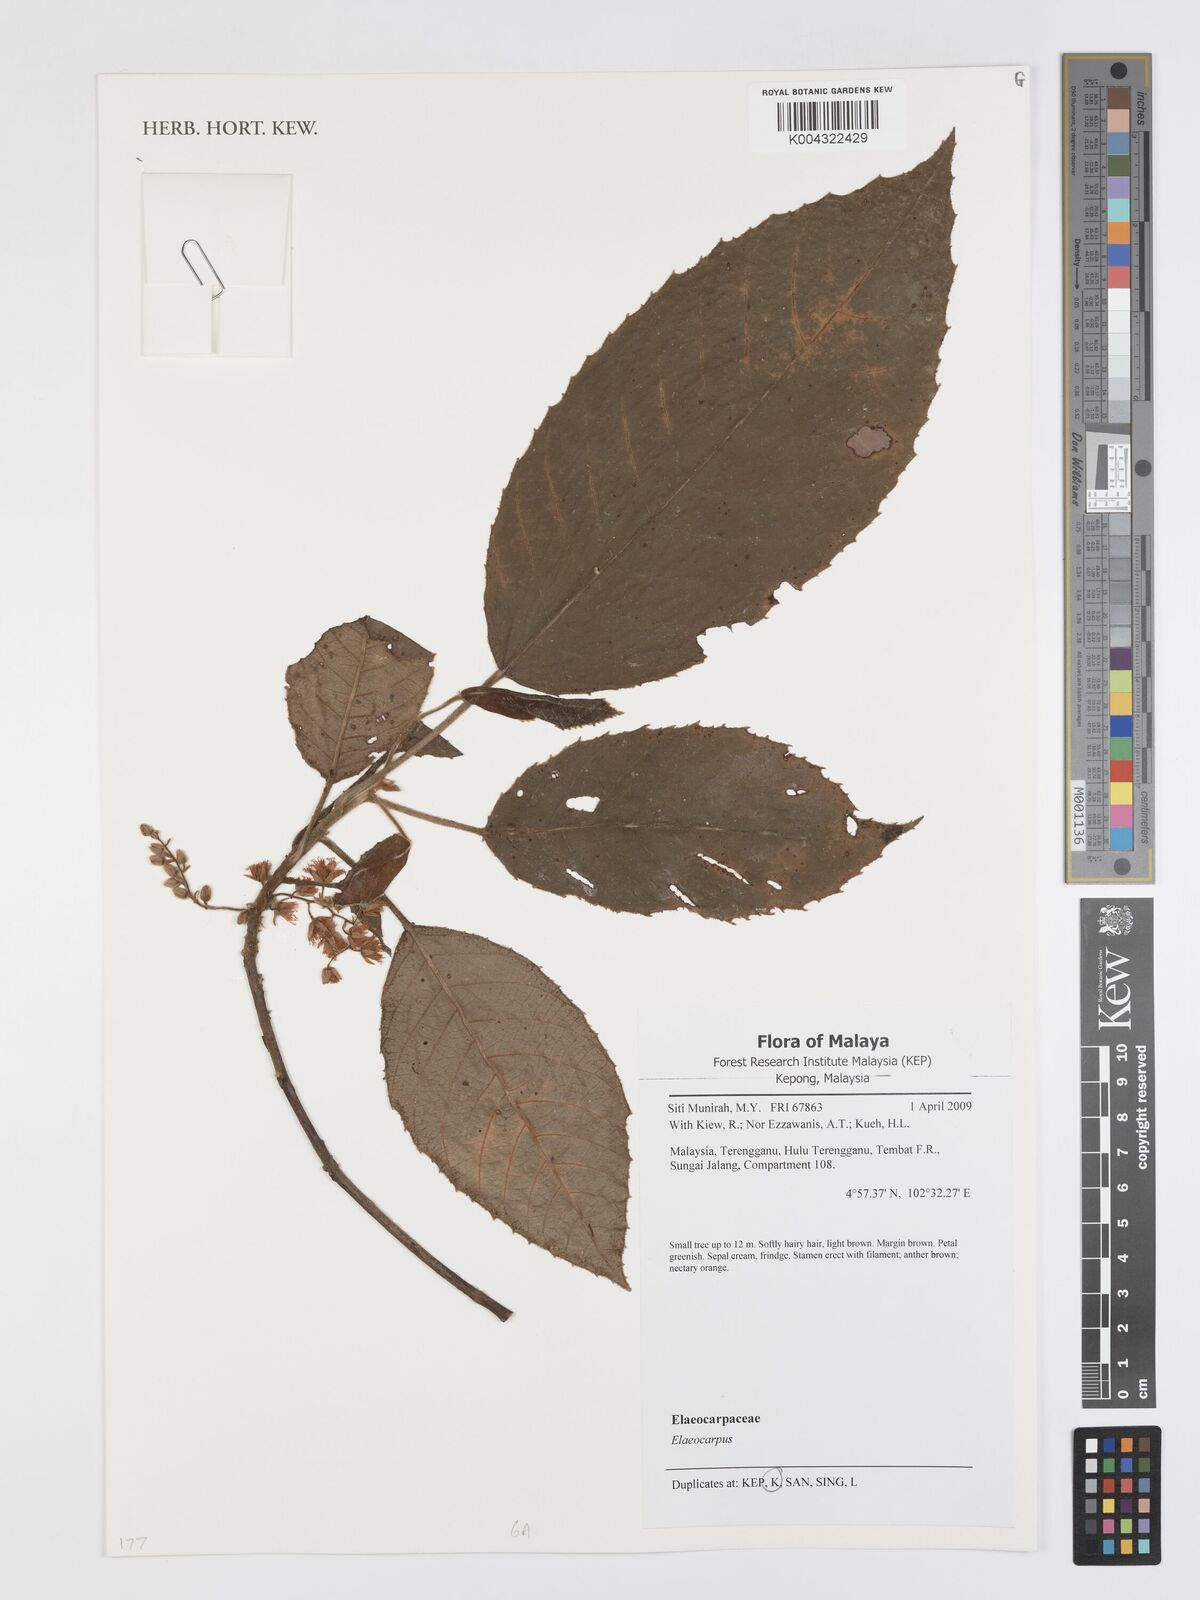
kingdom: Plantae
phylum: Tracheophyta
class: Magnoliopsida
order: Oxalidales
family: Elaeocarpaceae
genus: Elaeocarpus
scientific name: Elaeocarpus
